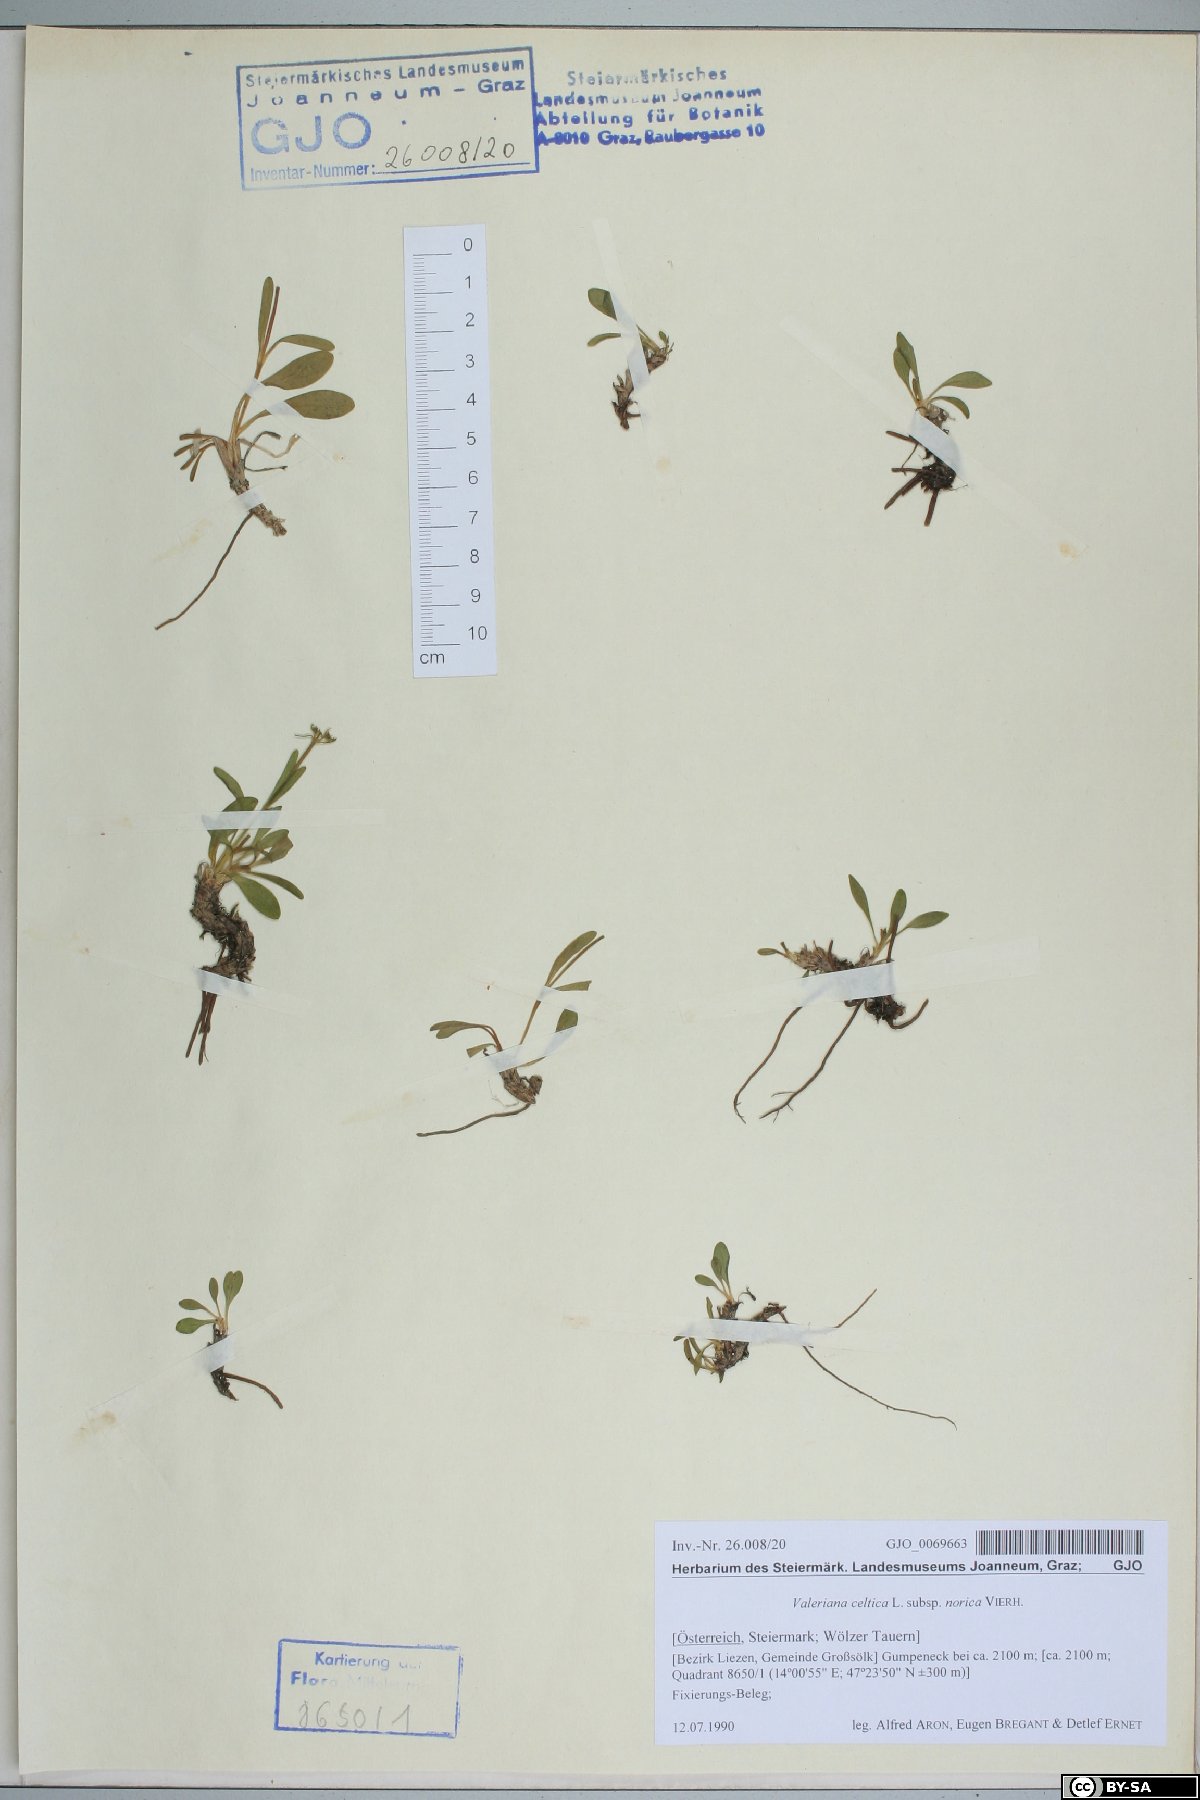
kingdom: Plantae
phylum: Tracheophyta
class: Magnoliopsida
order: Dipsacales
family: Caprifoliaceae
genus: Valeriana
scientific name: Valeriana celtica
